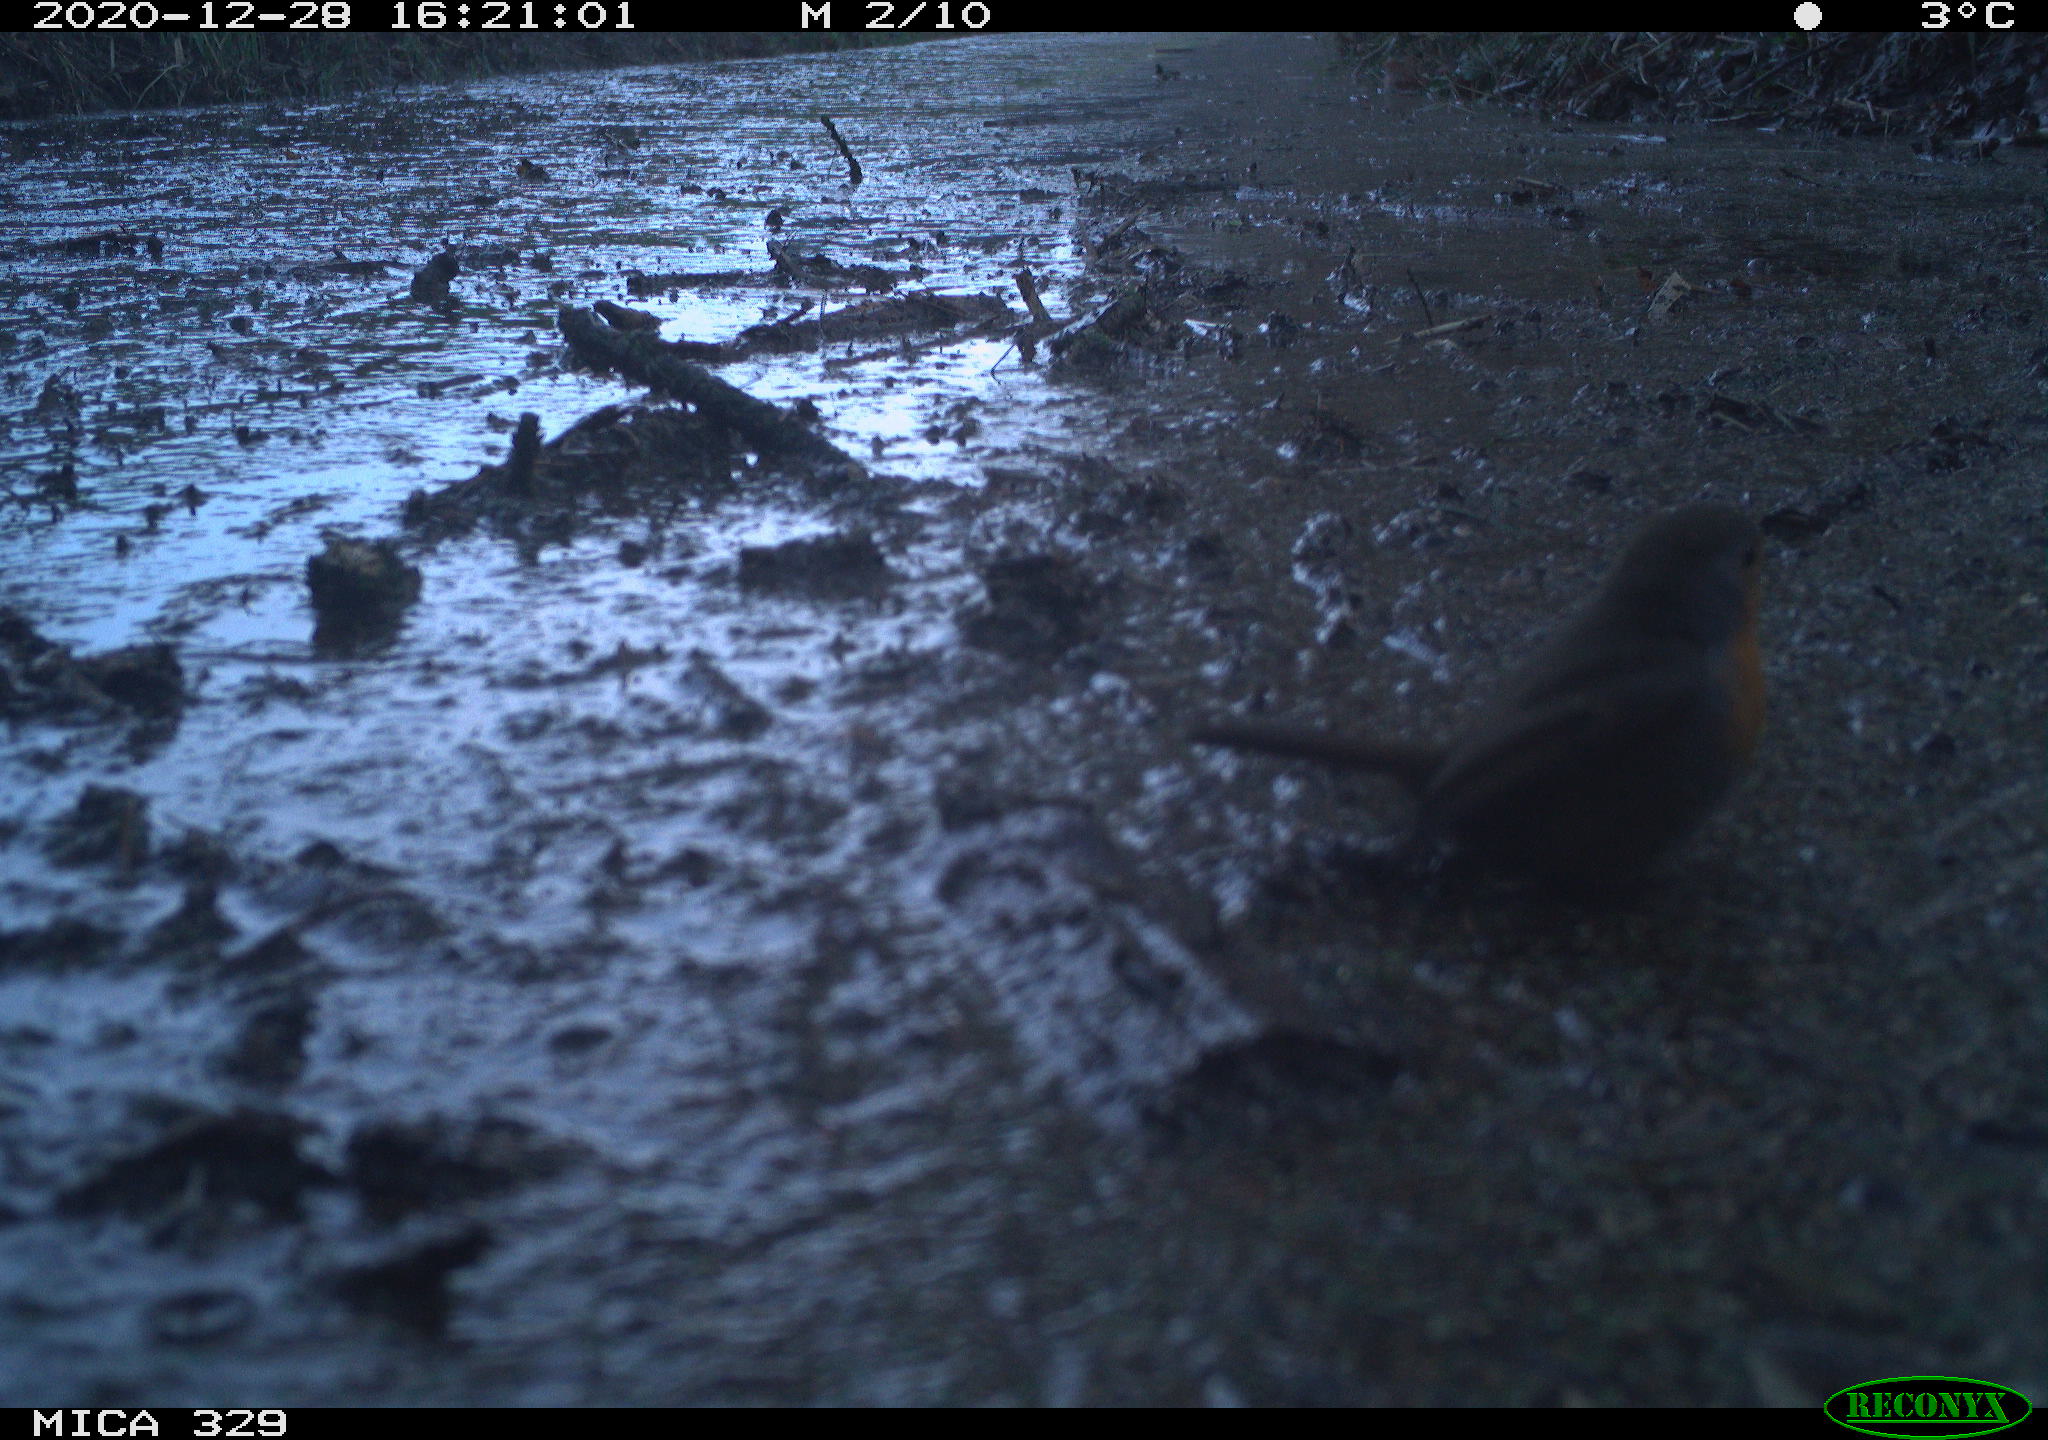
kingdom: Animalia
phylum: Chordata
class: Aves
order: Passeriformes
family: Muscicapidae
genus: Erithacus
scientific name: Erithacus rubecula
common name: European robin
